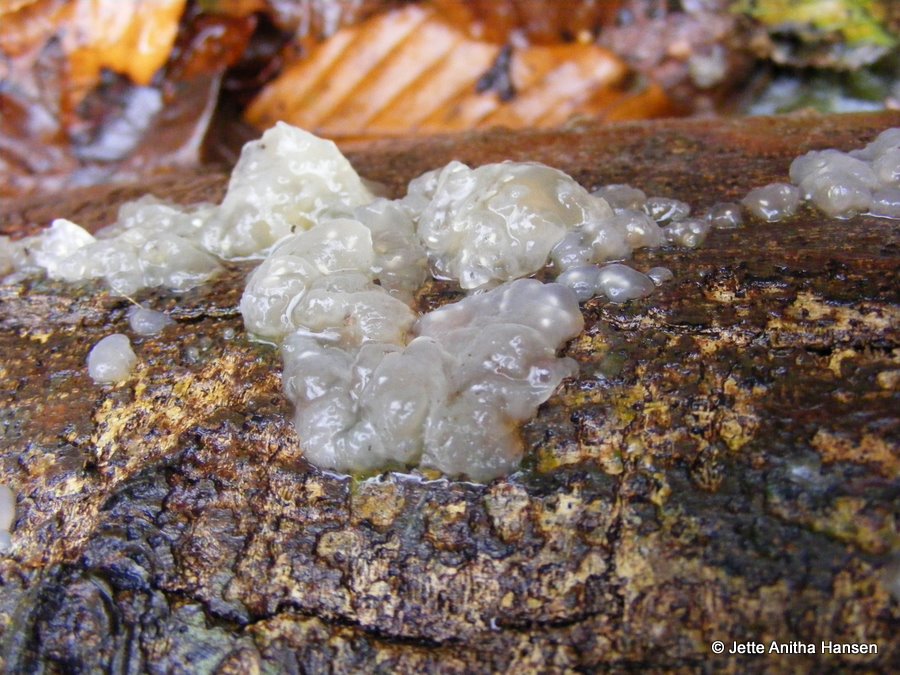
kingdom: Fungi
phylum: Basidiomycota
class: Agaricomycetes
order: Auriculariales
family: Hyaloriaceae
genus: Myxarium
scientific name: Myxarium nucleatum
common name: klar bævretop
